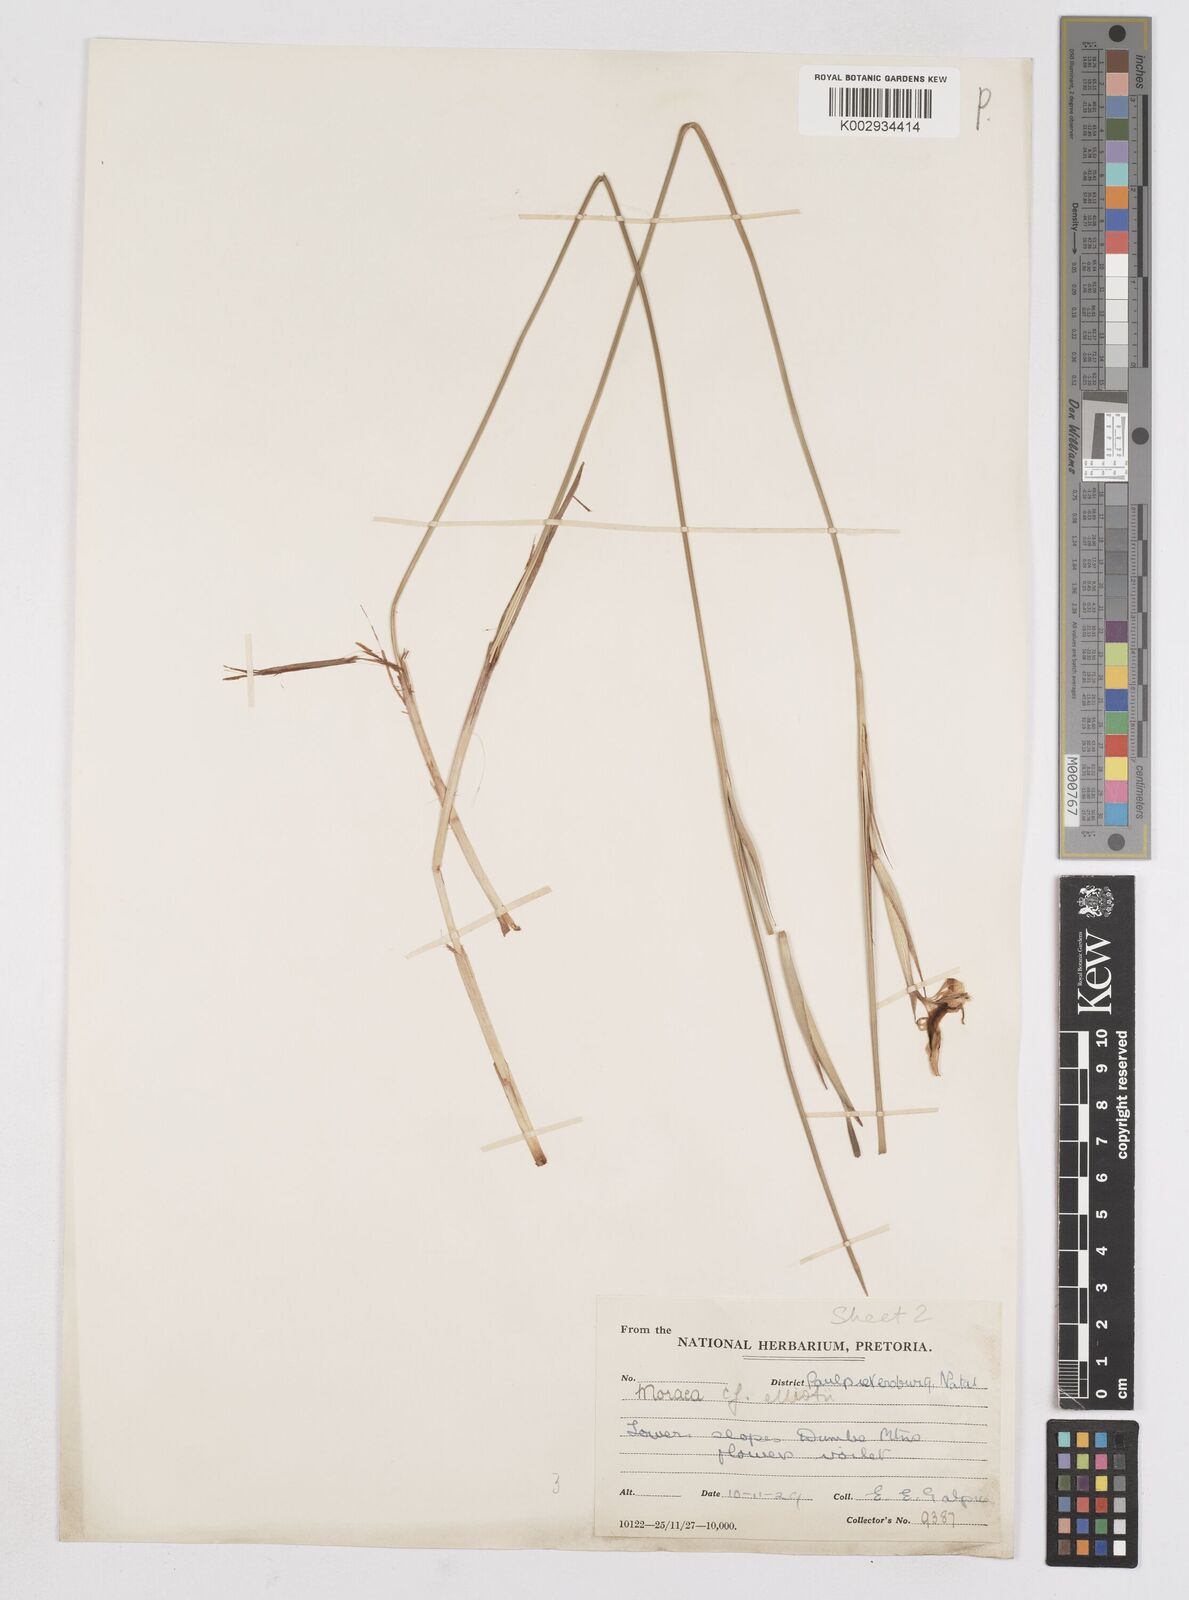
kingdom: Plantae
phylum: Tracheophyta
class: Liliopsida
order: Asparagales
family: Iridaceae
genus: Moraea
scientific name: Moraea elliotii
